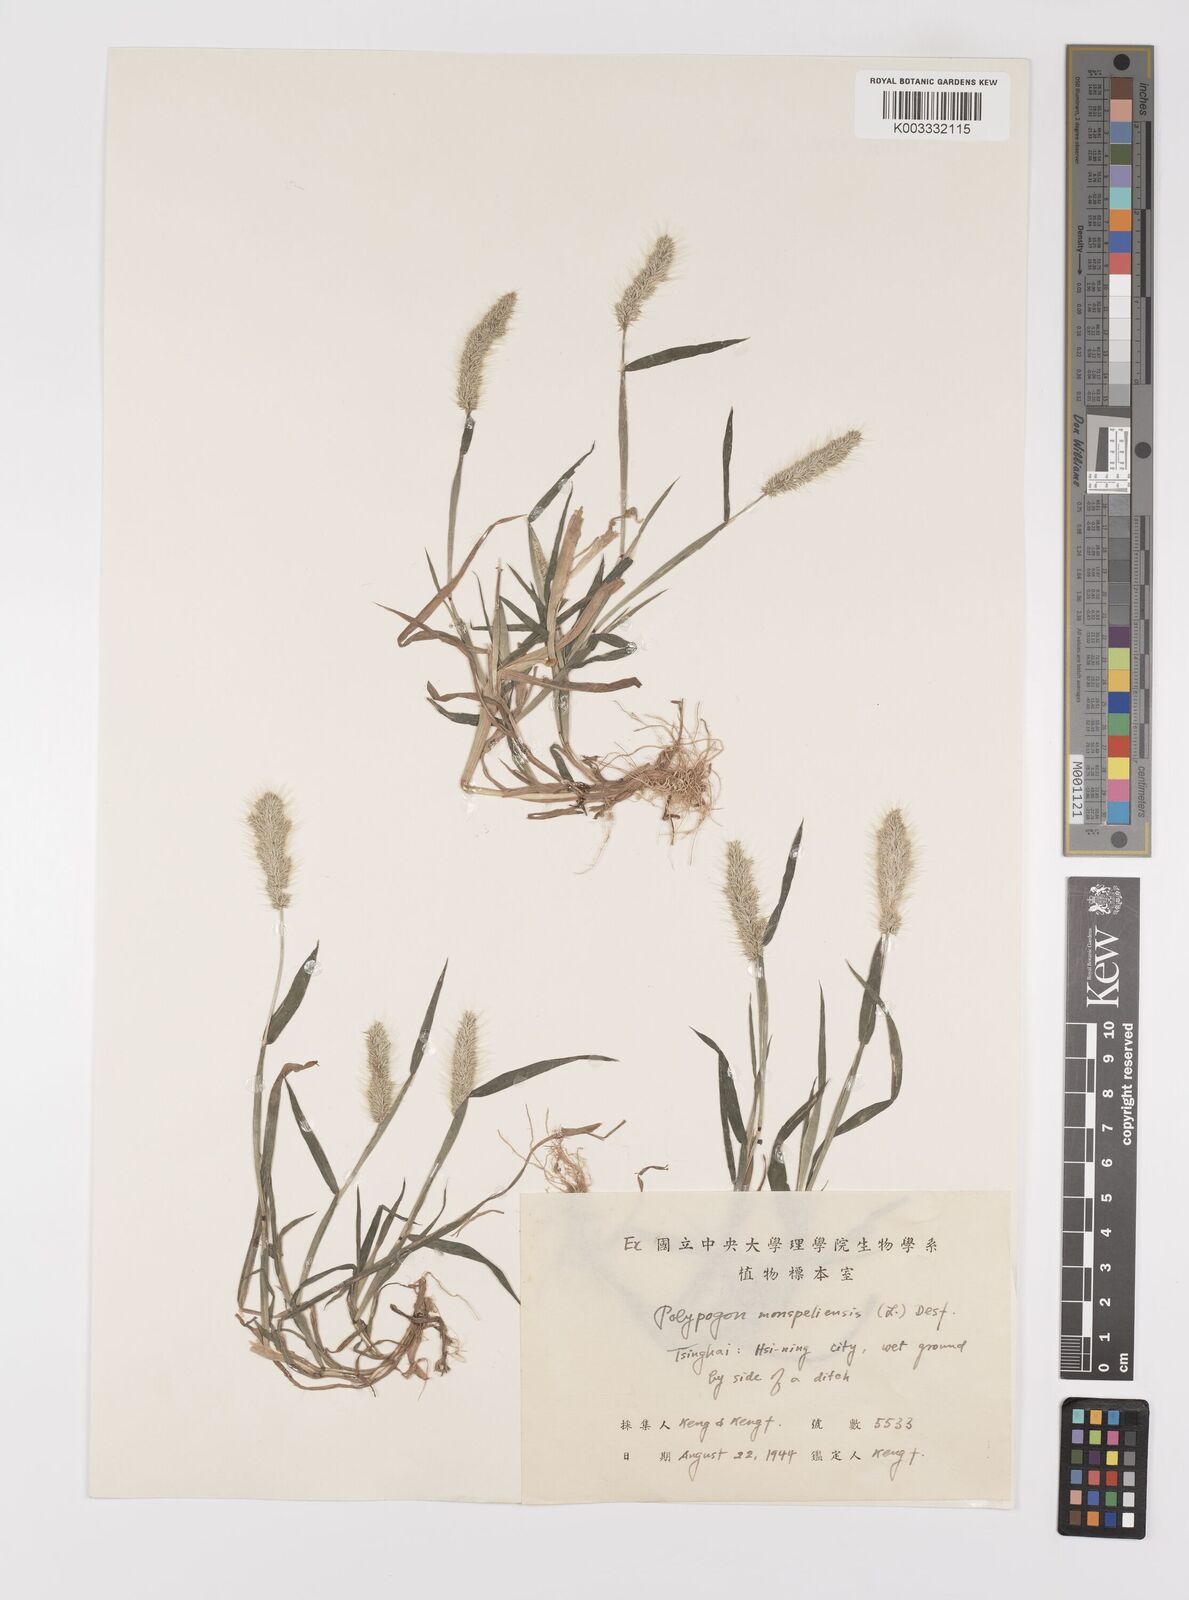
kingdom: Plantae
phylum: Tracheophyta
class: Liliopsida
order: Poales
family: Poaceae
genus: Polypogon
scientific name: Polypogon monspeliensis
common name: Annual rabbitsfoot grass
